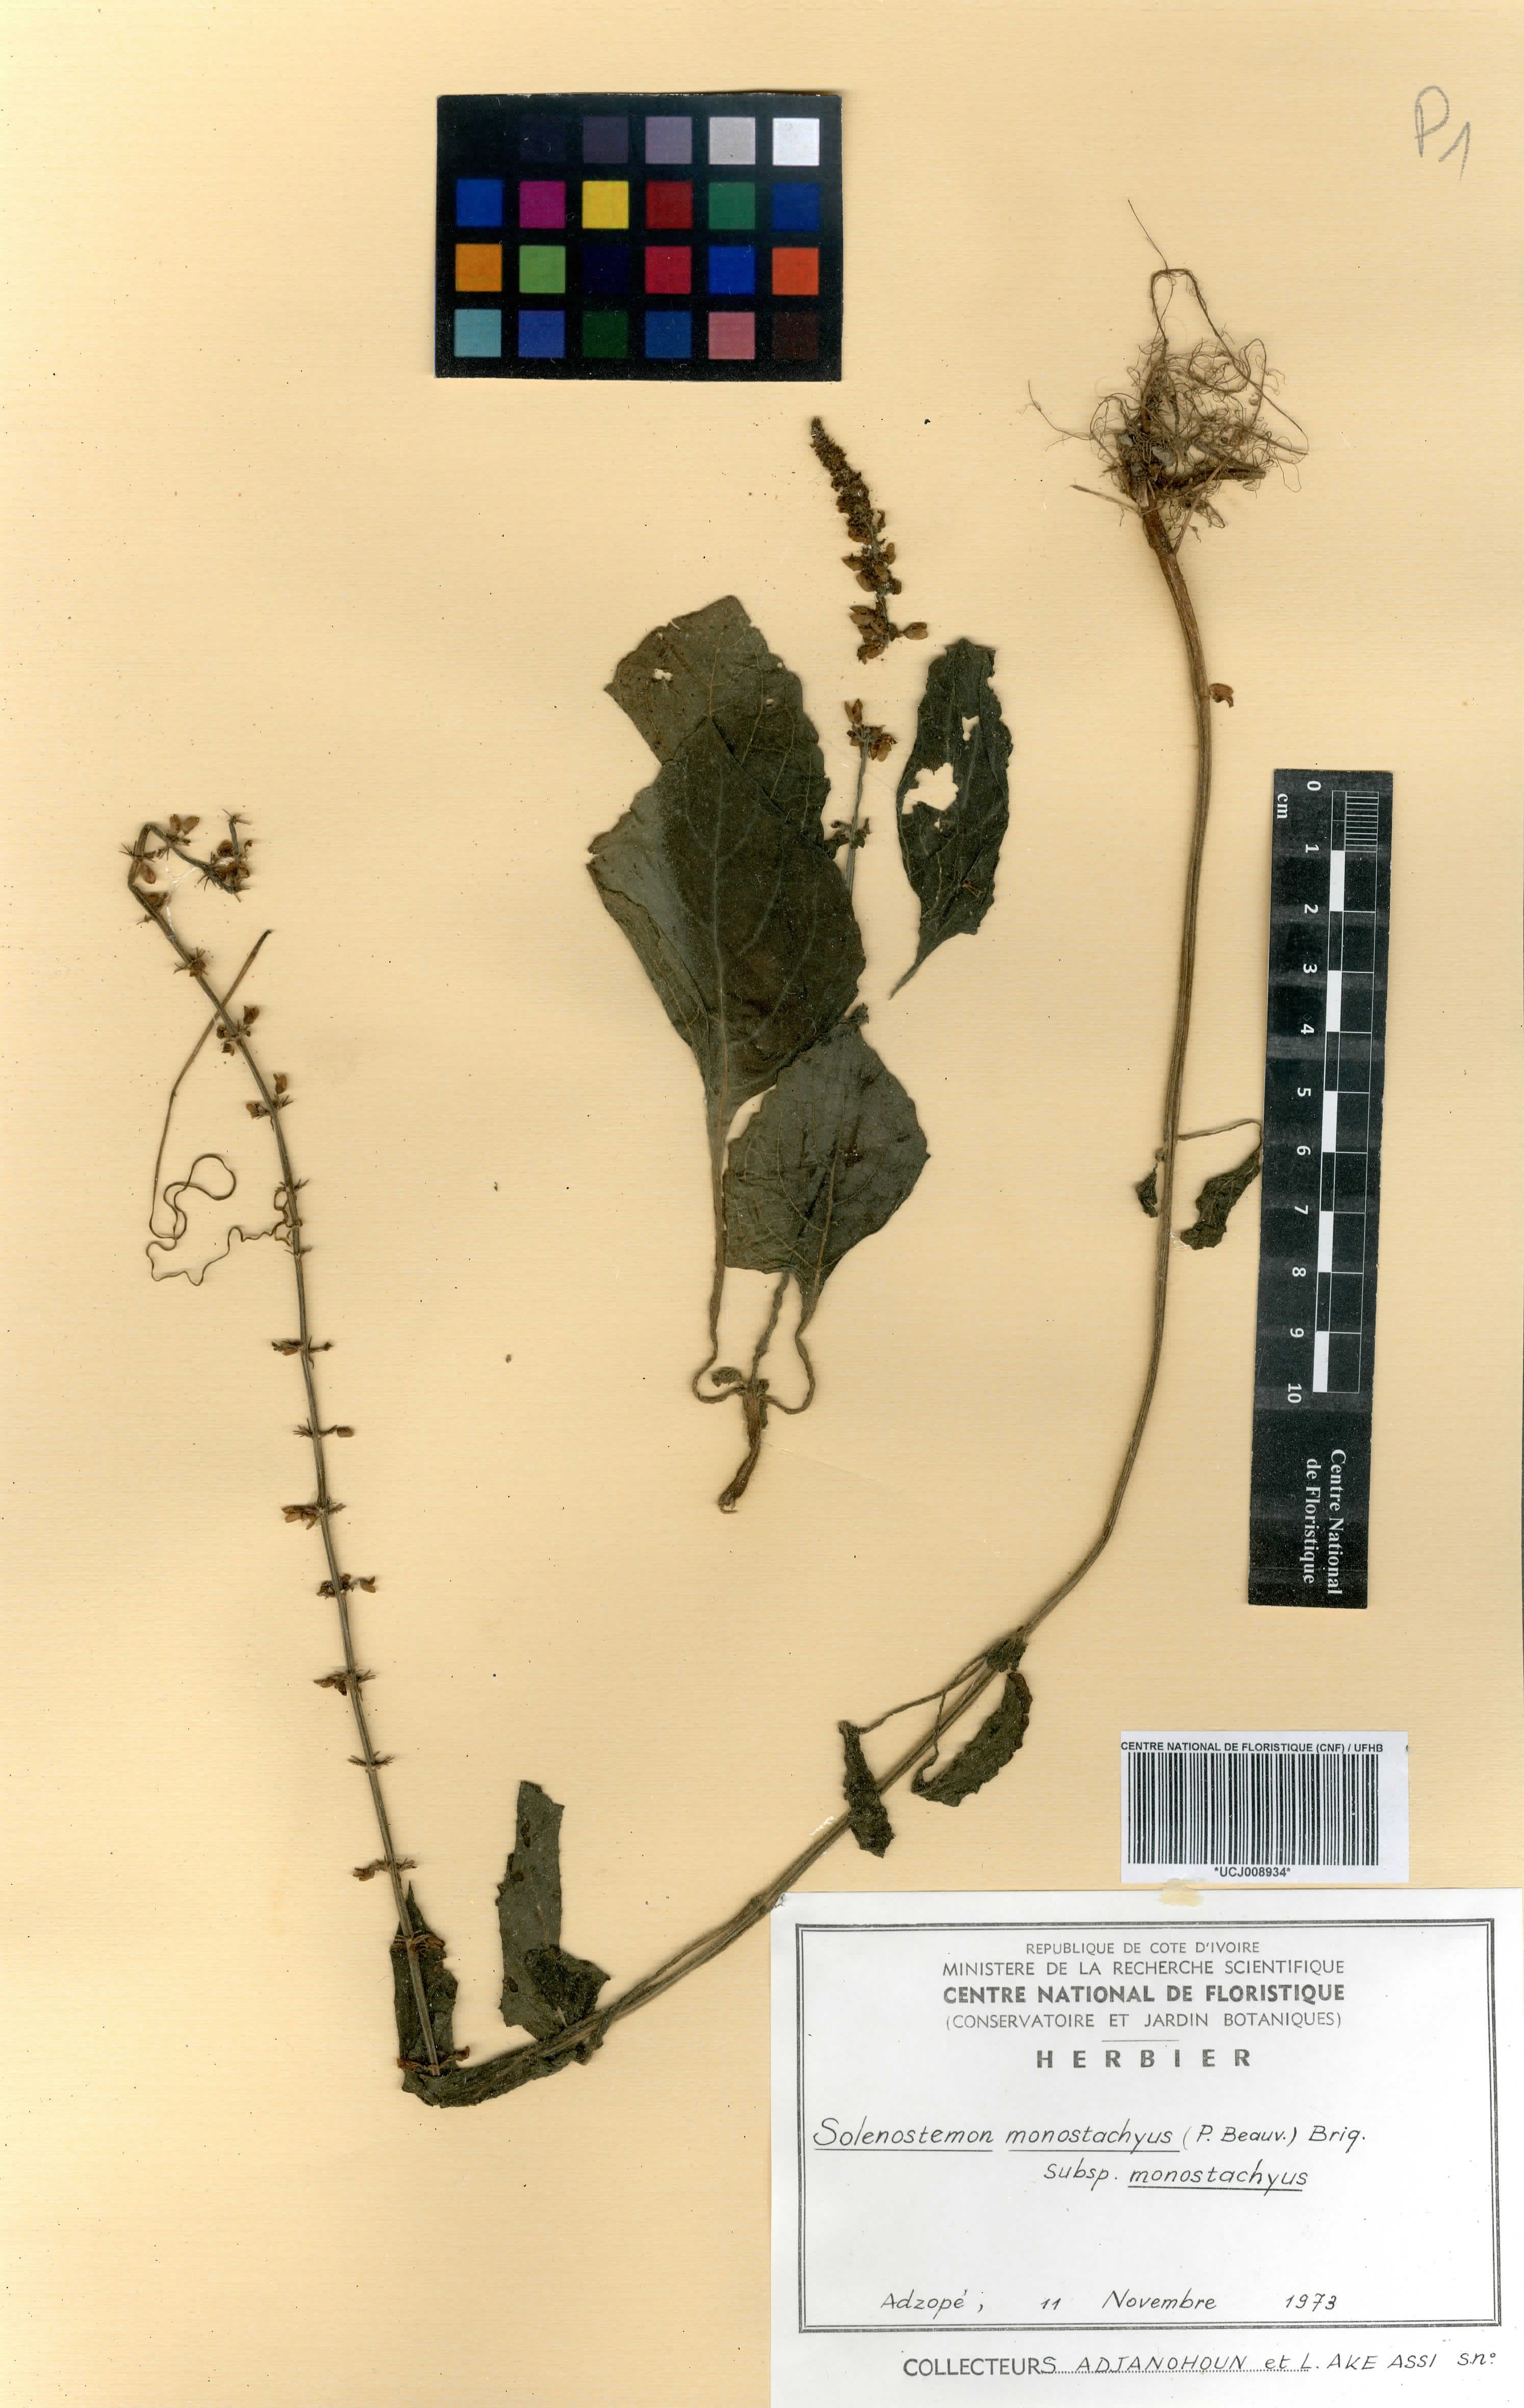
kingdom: Plantae
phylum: Tracheophyta
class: Magnoliopsida
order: Lamiales
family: Lamiaceae
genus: Coleus
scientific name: Coleus monostachyus
